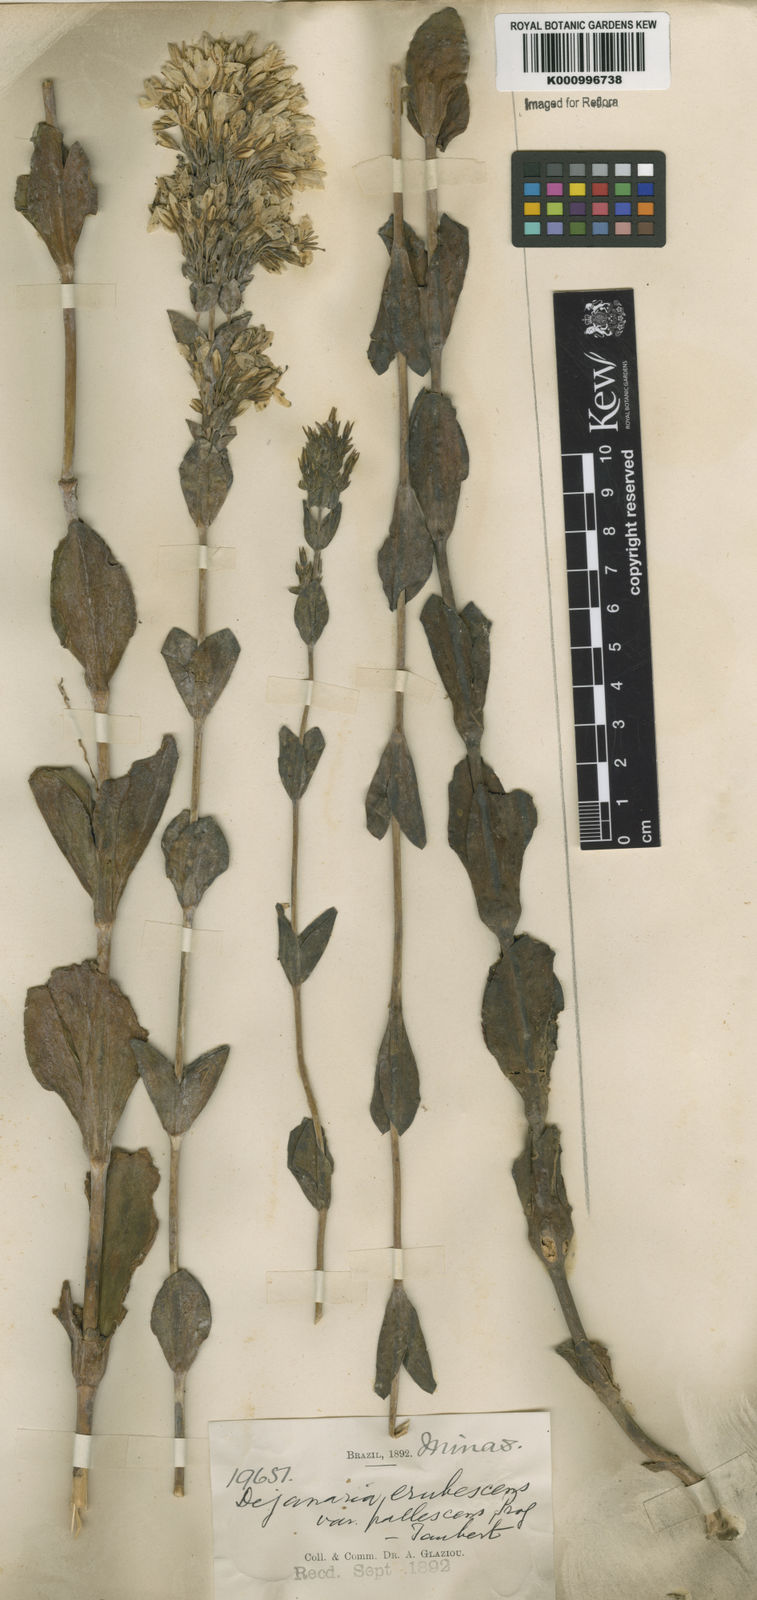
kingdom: Plantae
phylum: Tracheophyta
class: Magnoliopsida
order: Gentianales
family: Gentianaceae
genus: Deianira
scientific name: Deianira pallescens
